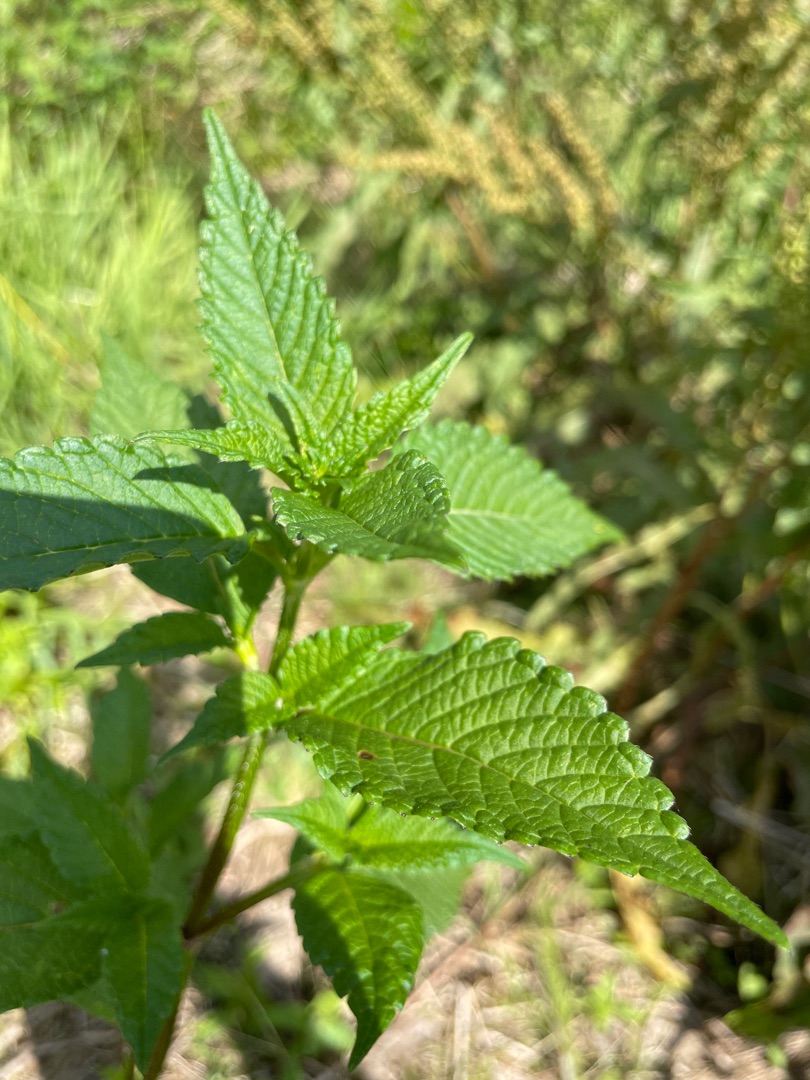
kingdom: Plantae
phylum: Tracheophyta
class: Magnoliopsida
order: Lamiales
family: Lamiaceae
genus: Galeopsis
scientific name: Galeopsis
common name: Hanekroslægten
